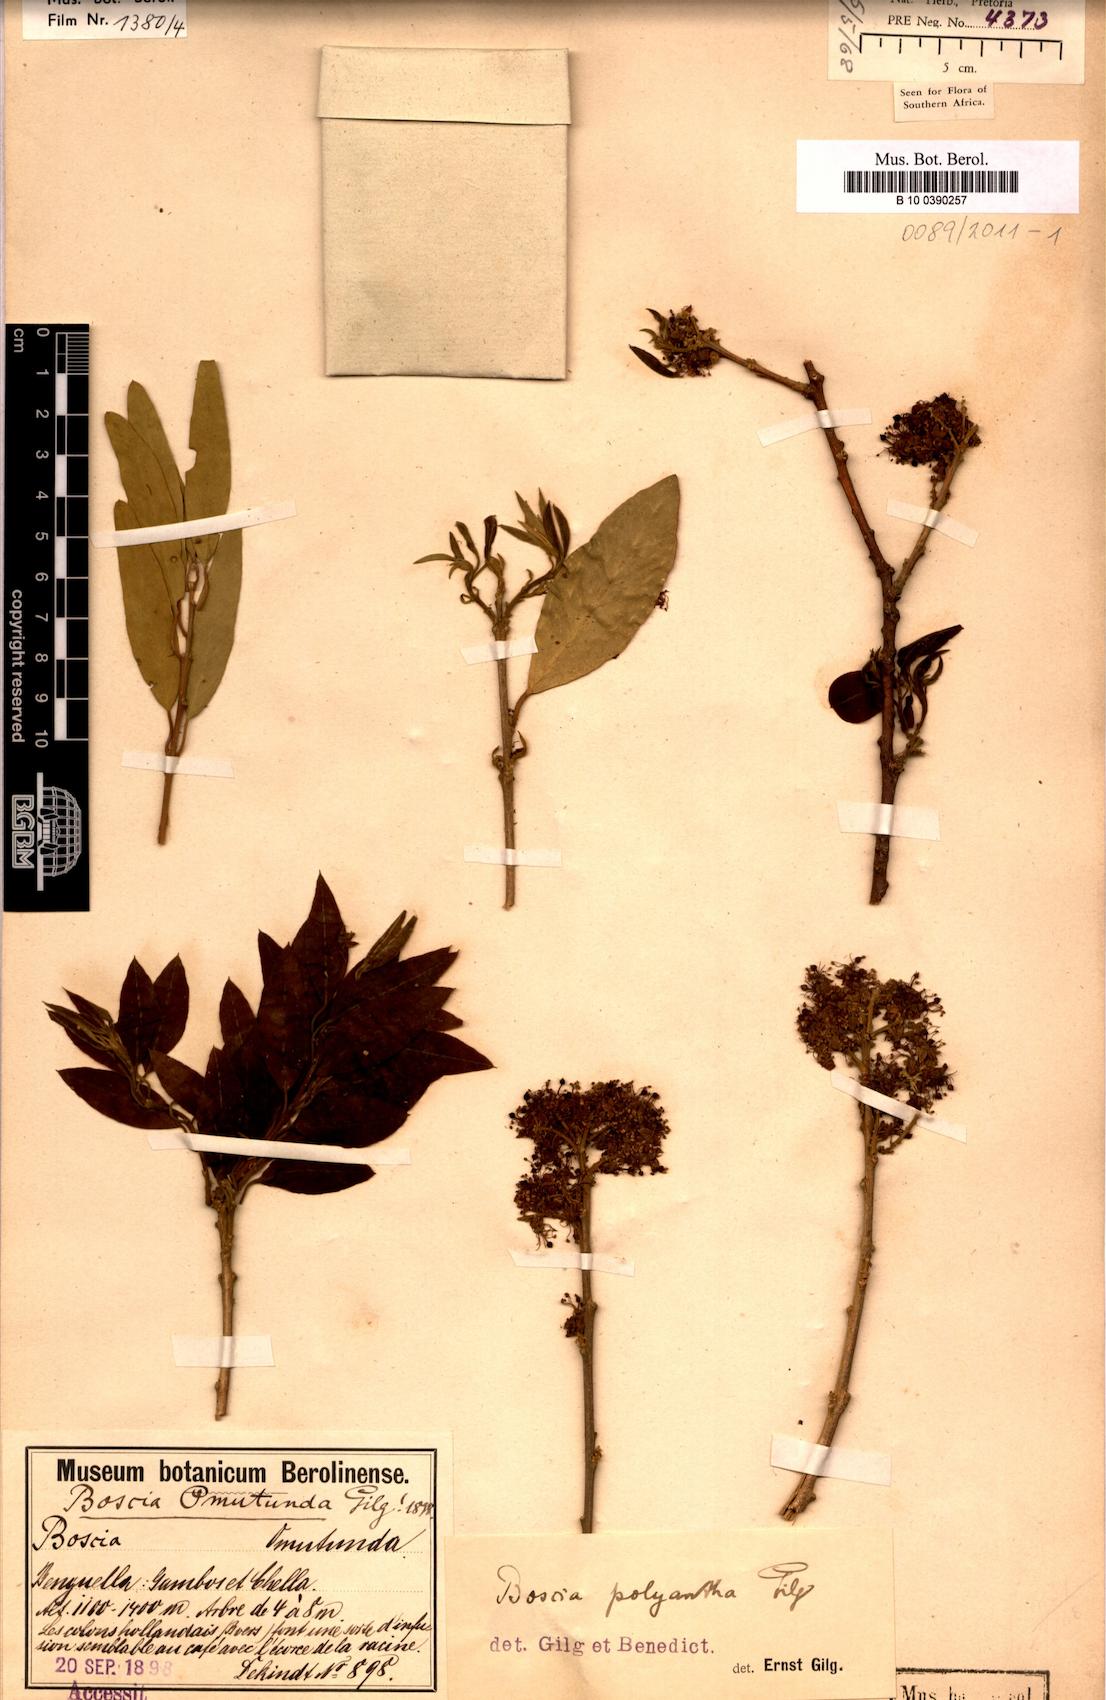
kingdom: Plantae
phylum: Tracheophyta
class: Magnoliopsida
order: Brassicales
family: Capparaceae
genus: Boscia
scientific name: Boscia polyantha
